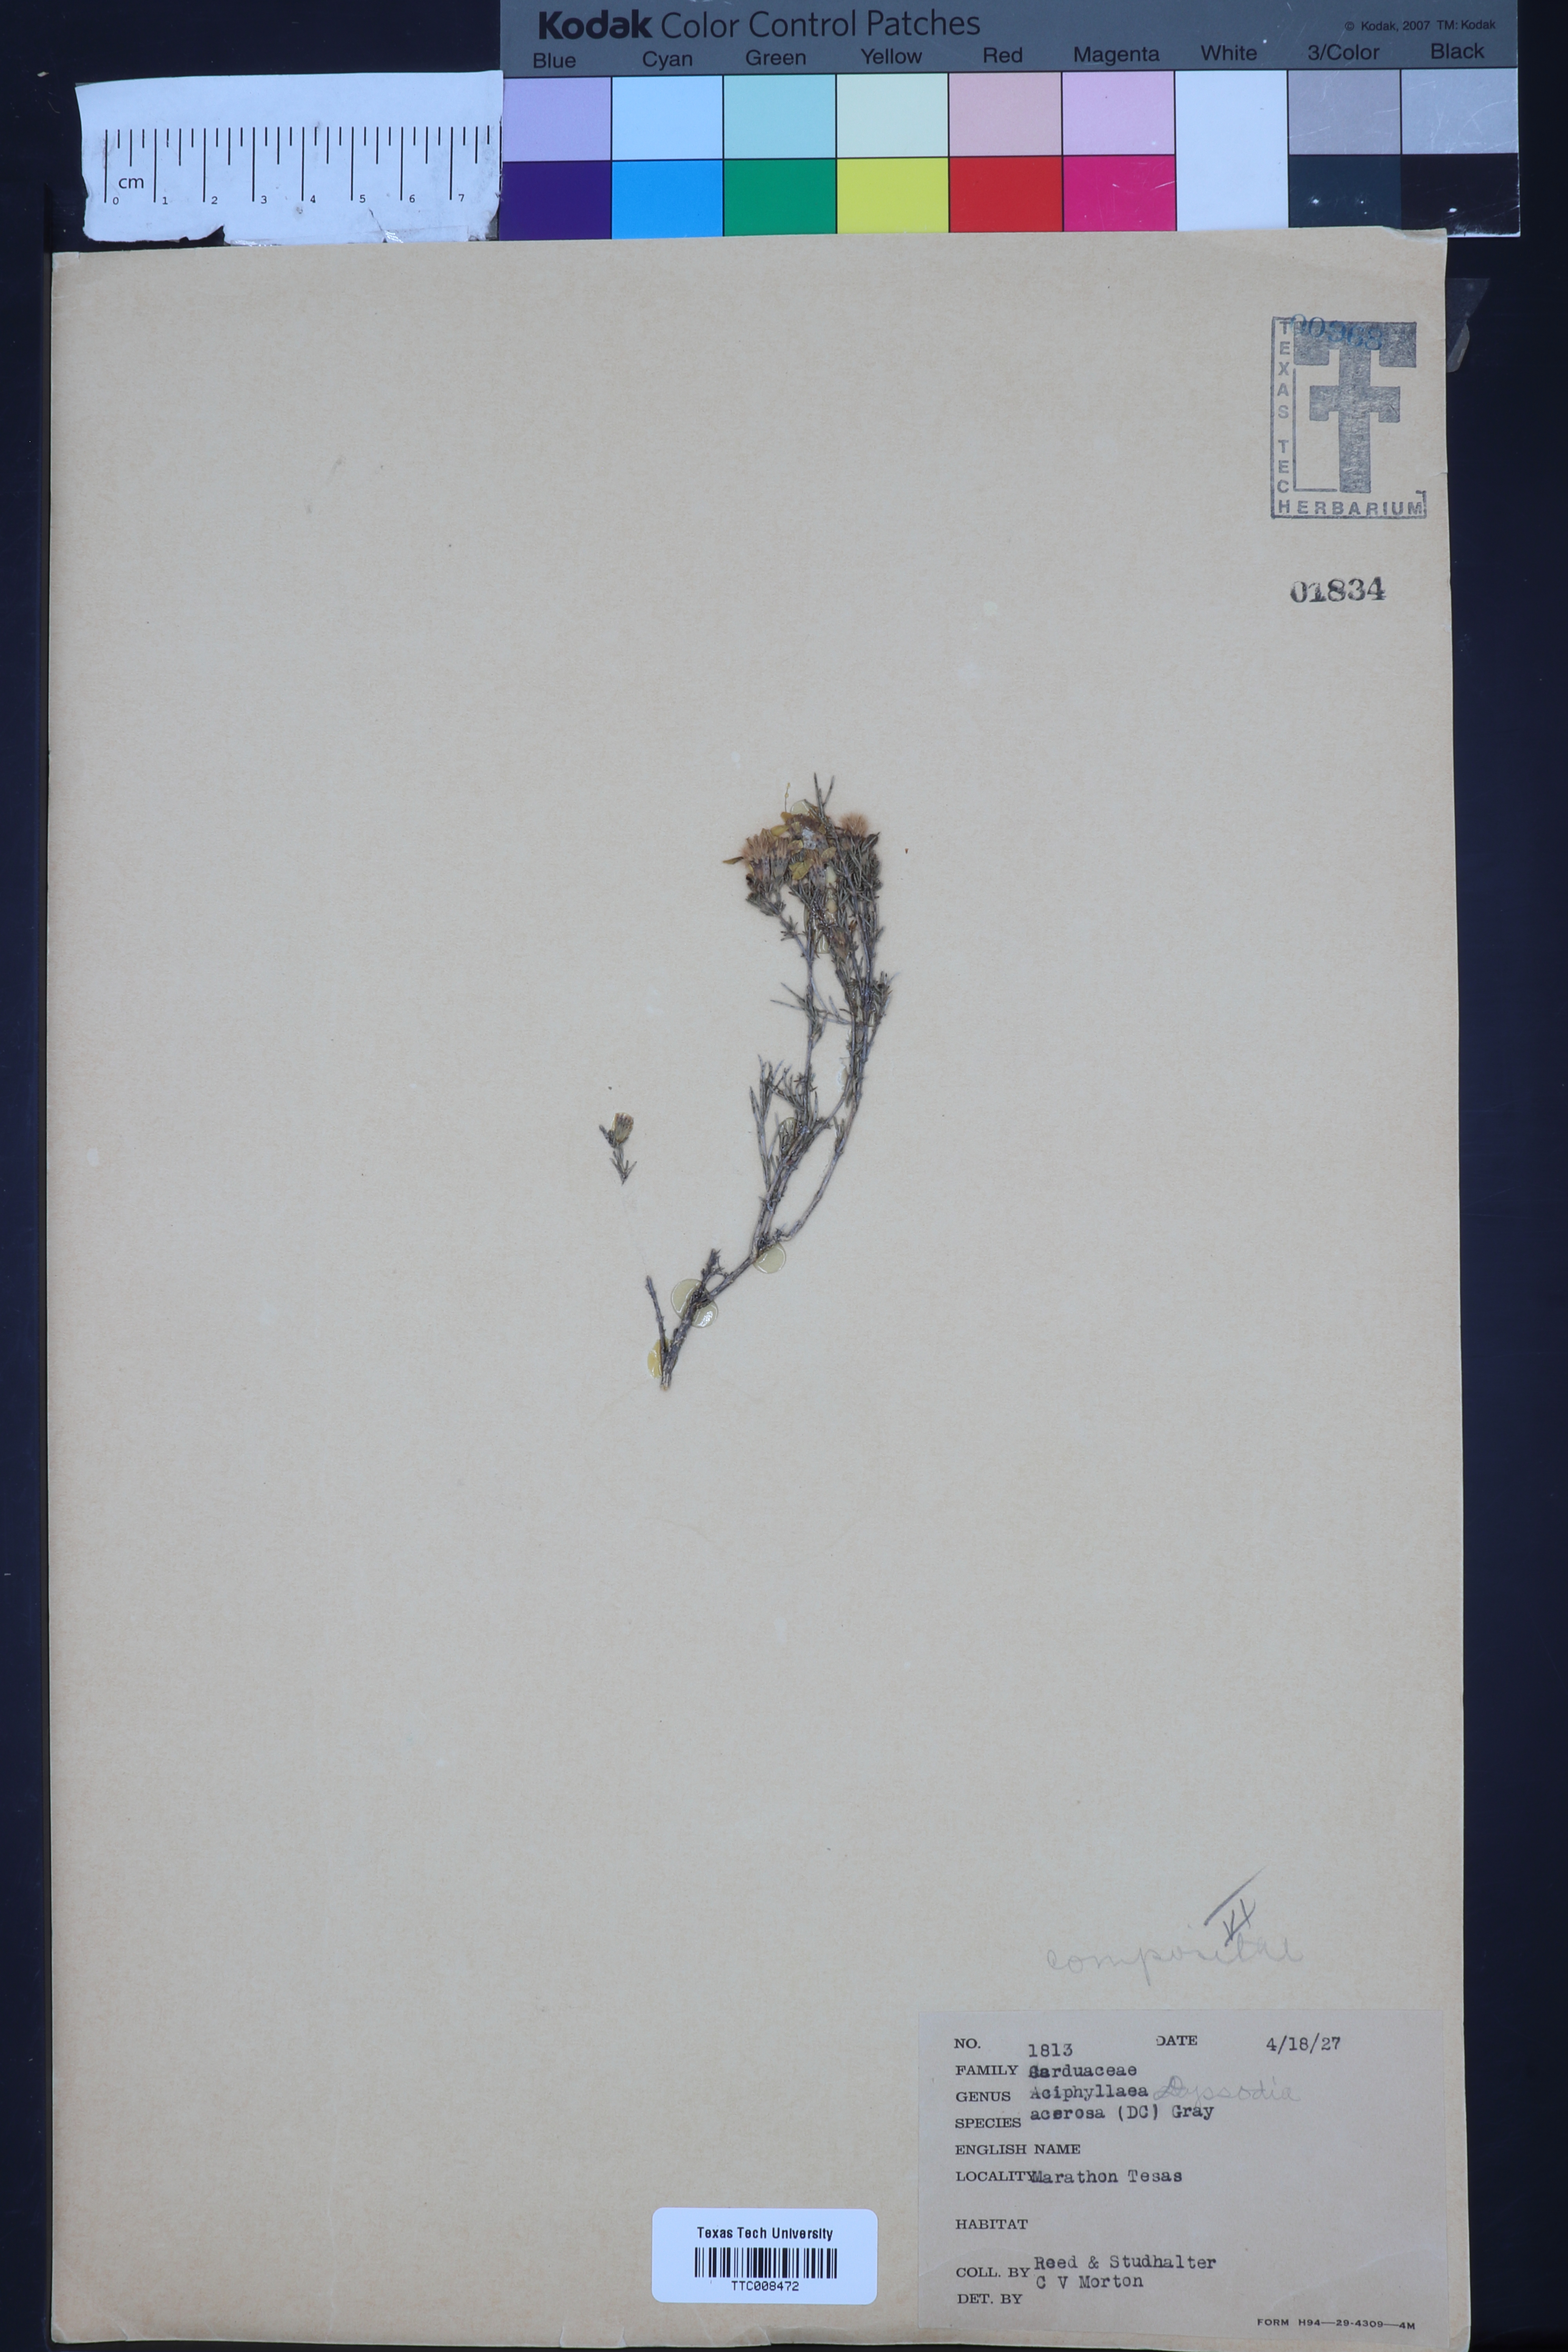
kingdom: Plantae
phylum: Tracheophyta
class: Magnoliopsida
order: Asterales
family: Asteraceae
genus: Thymophylla
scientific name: Thymophylla acerosa
